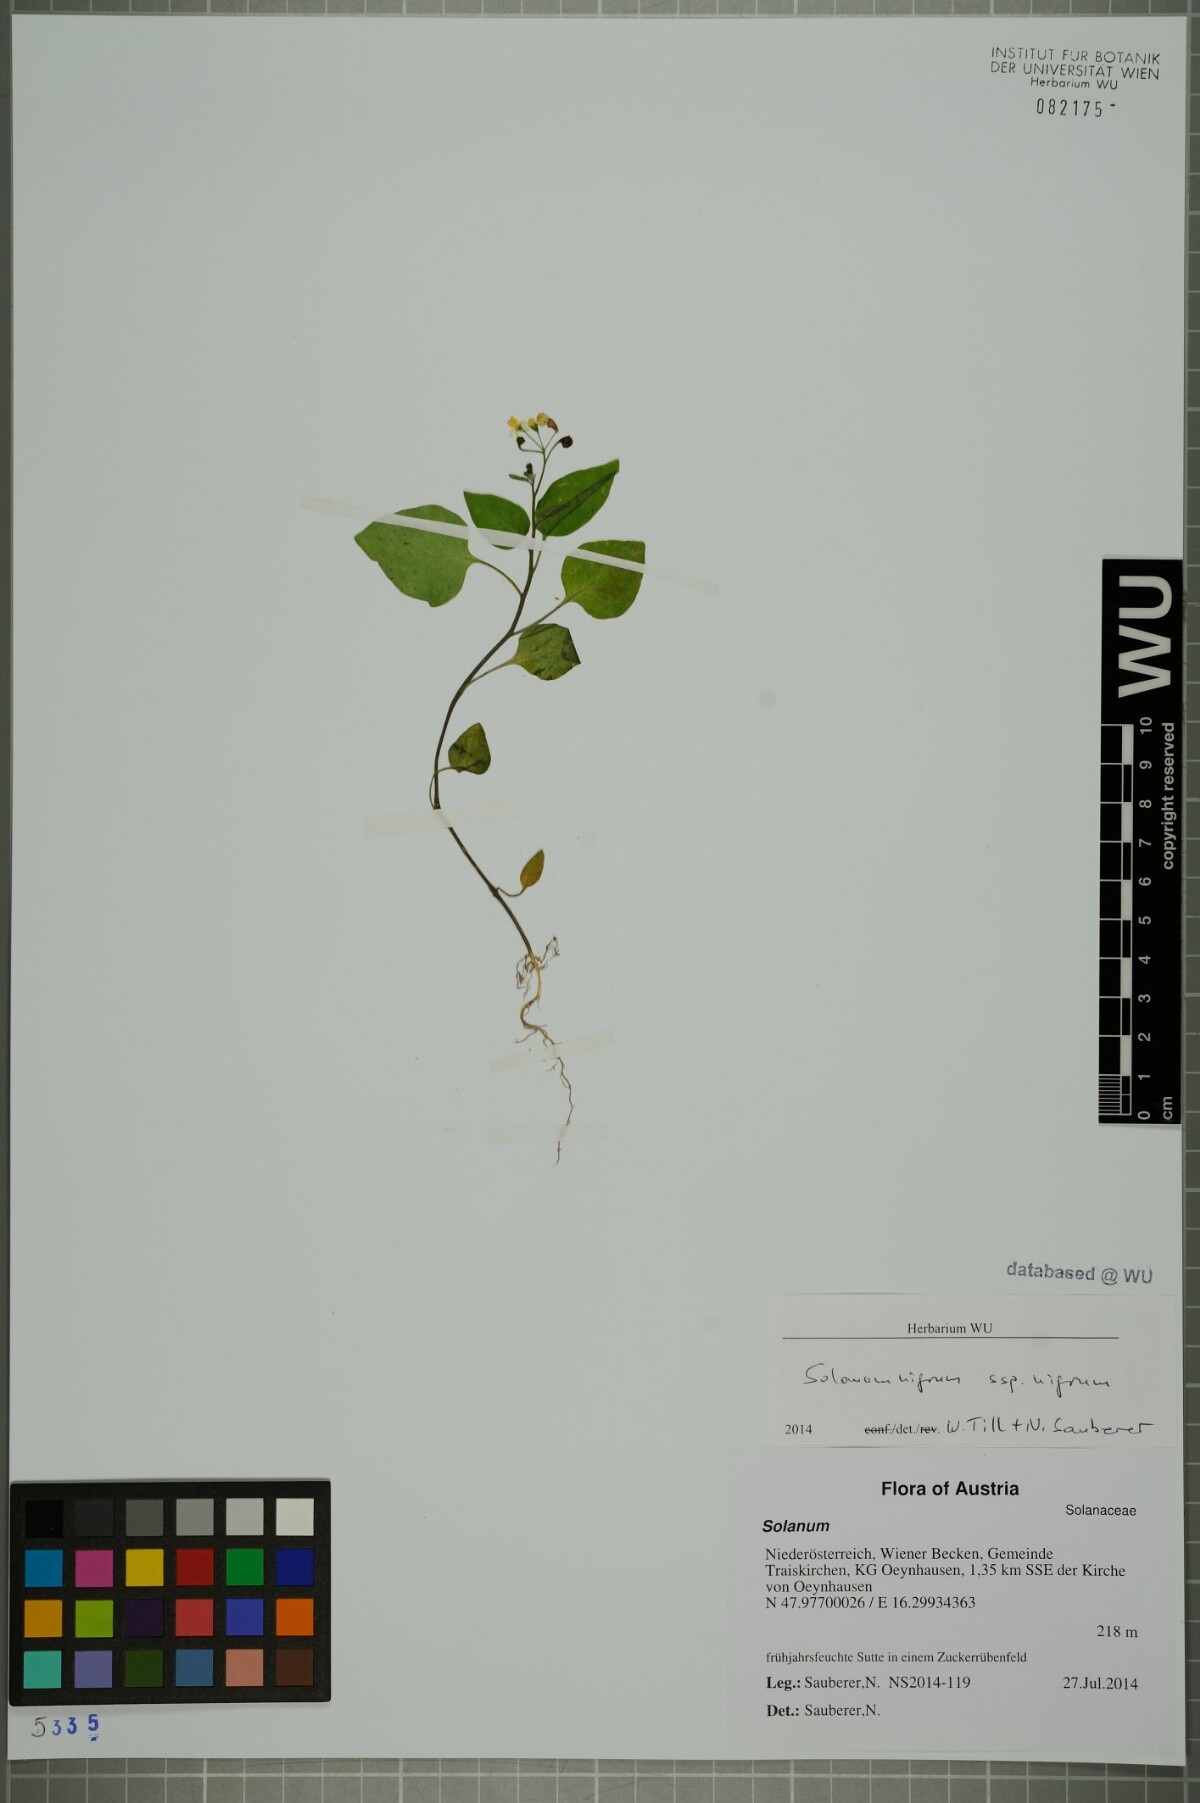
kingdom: Plantae
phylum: Tracheophyta
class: Magnoliopsida
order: Solanales
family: Solanaceae
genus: Solanum
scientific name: Solanum nigrum
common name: Black nightshade
